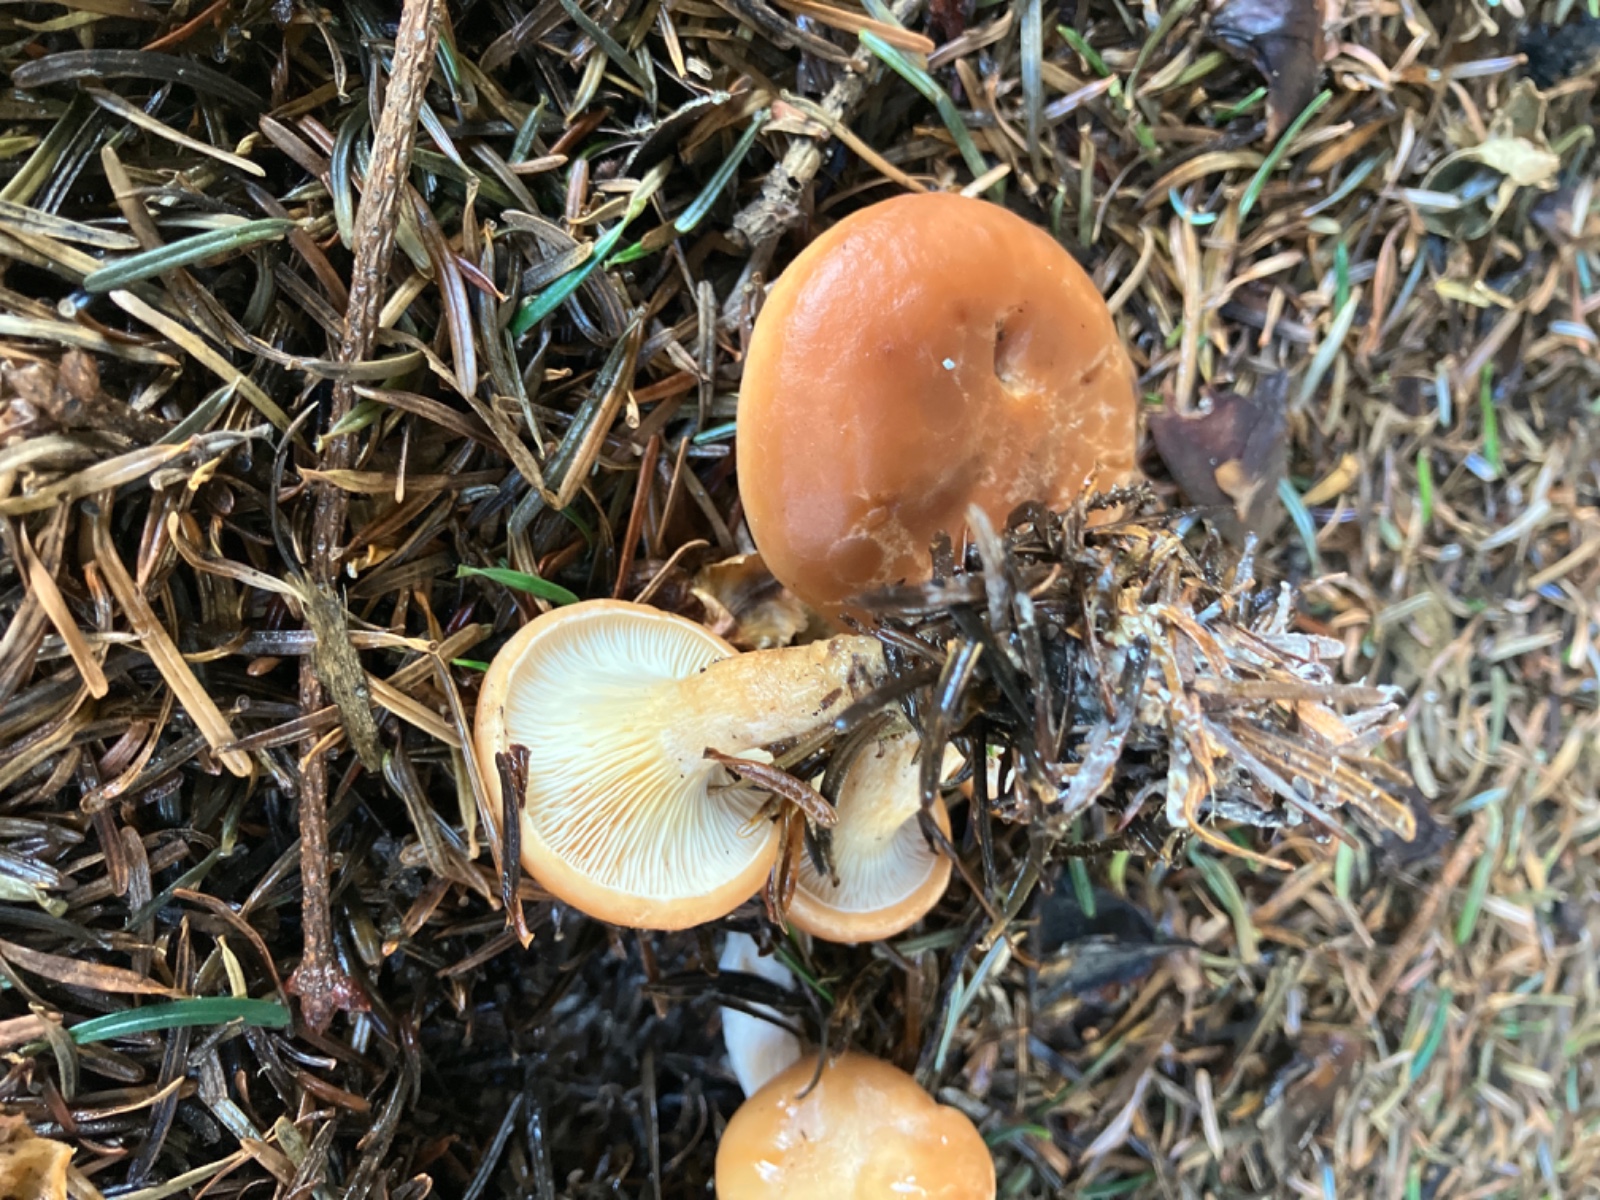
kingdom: Fungi
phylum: Basidiomycota
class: Agaricomycetes
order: Agaricales
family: Tricholomataceae
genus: Paralepista
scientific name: Paralepista flaccida
